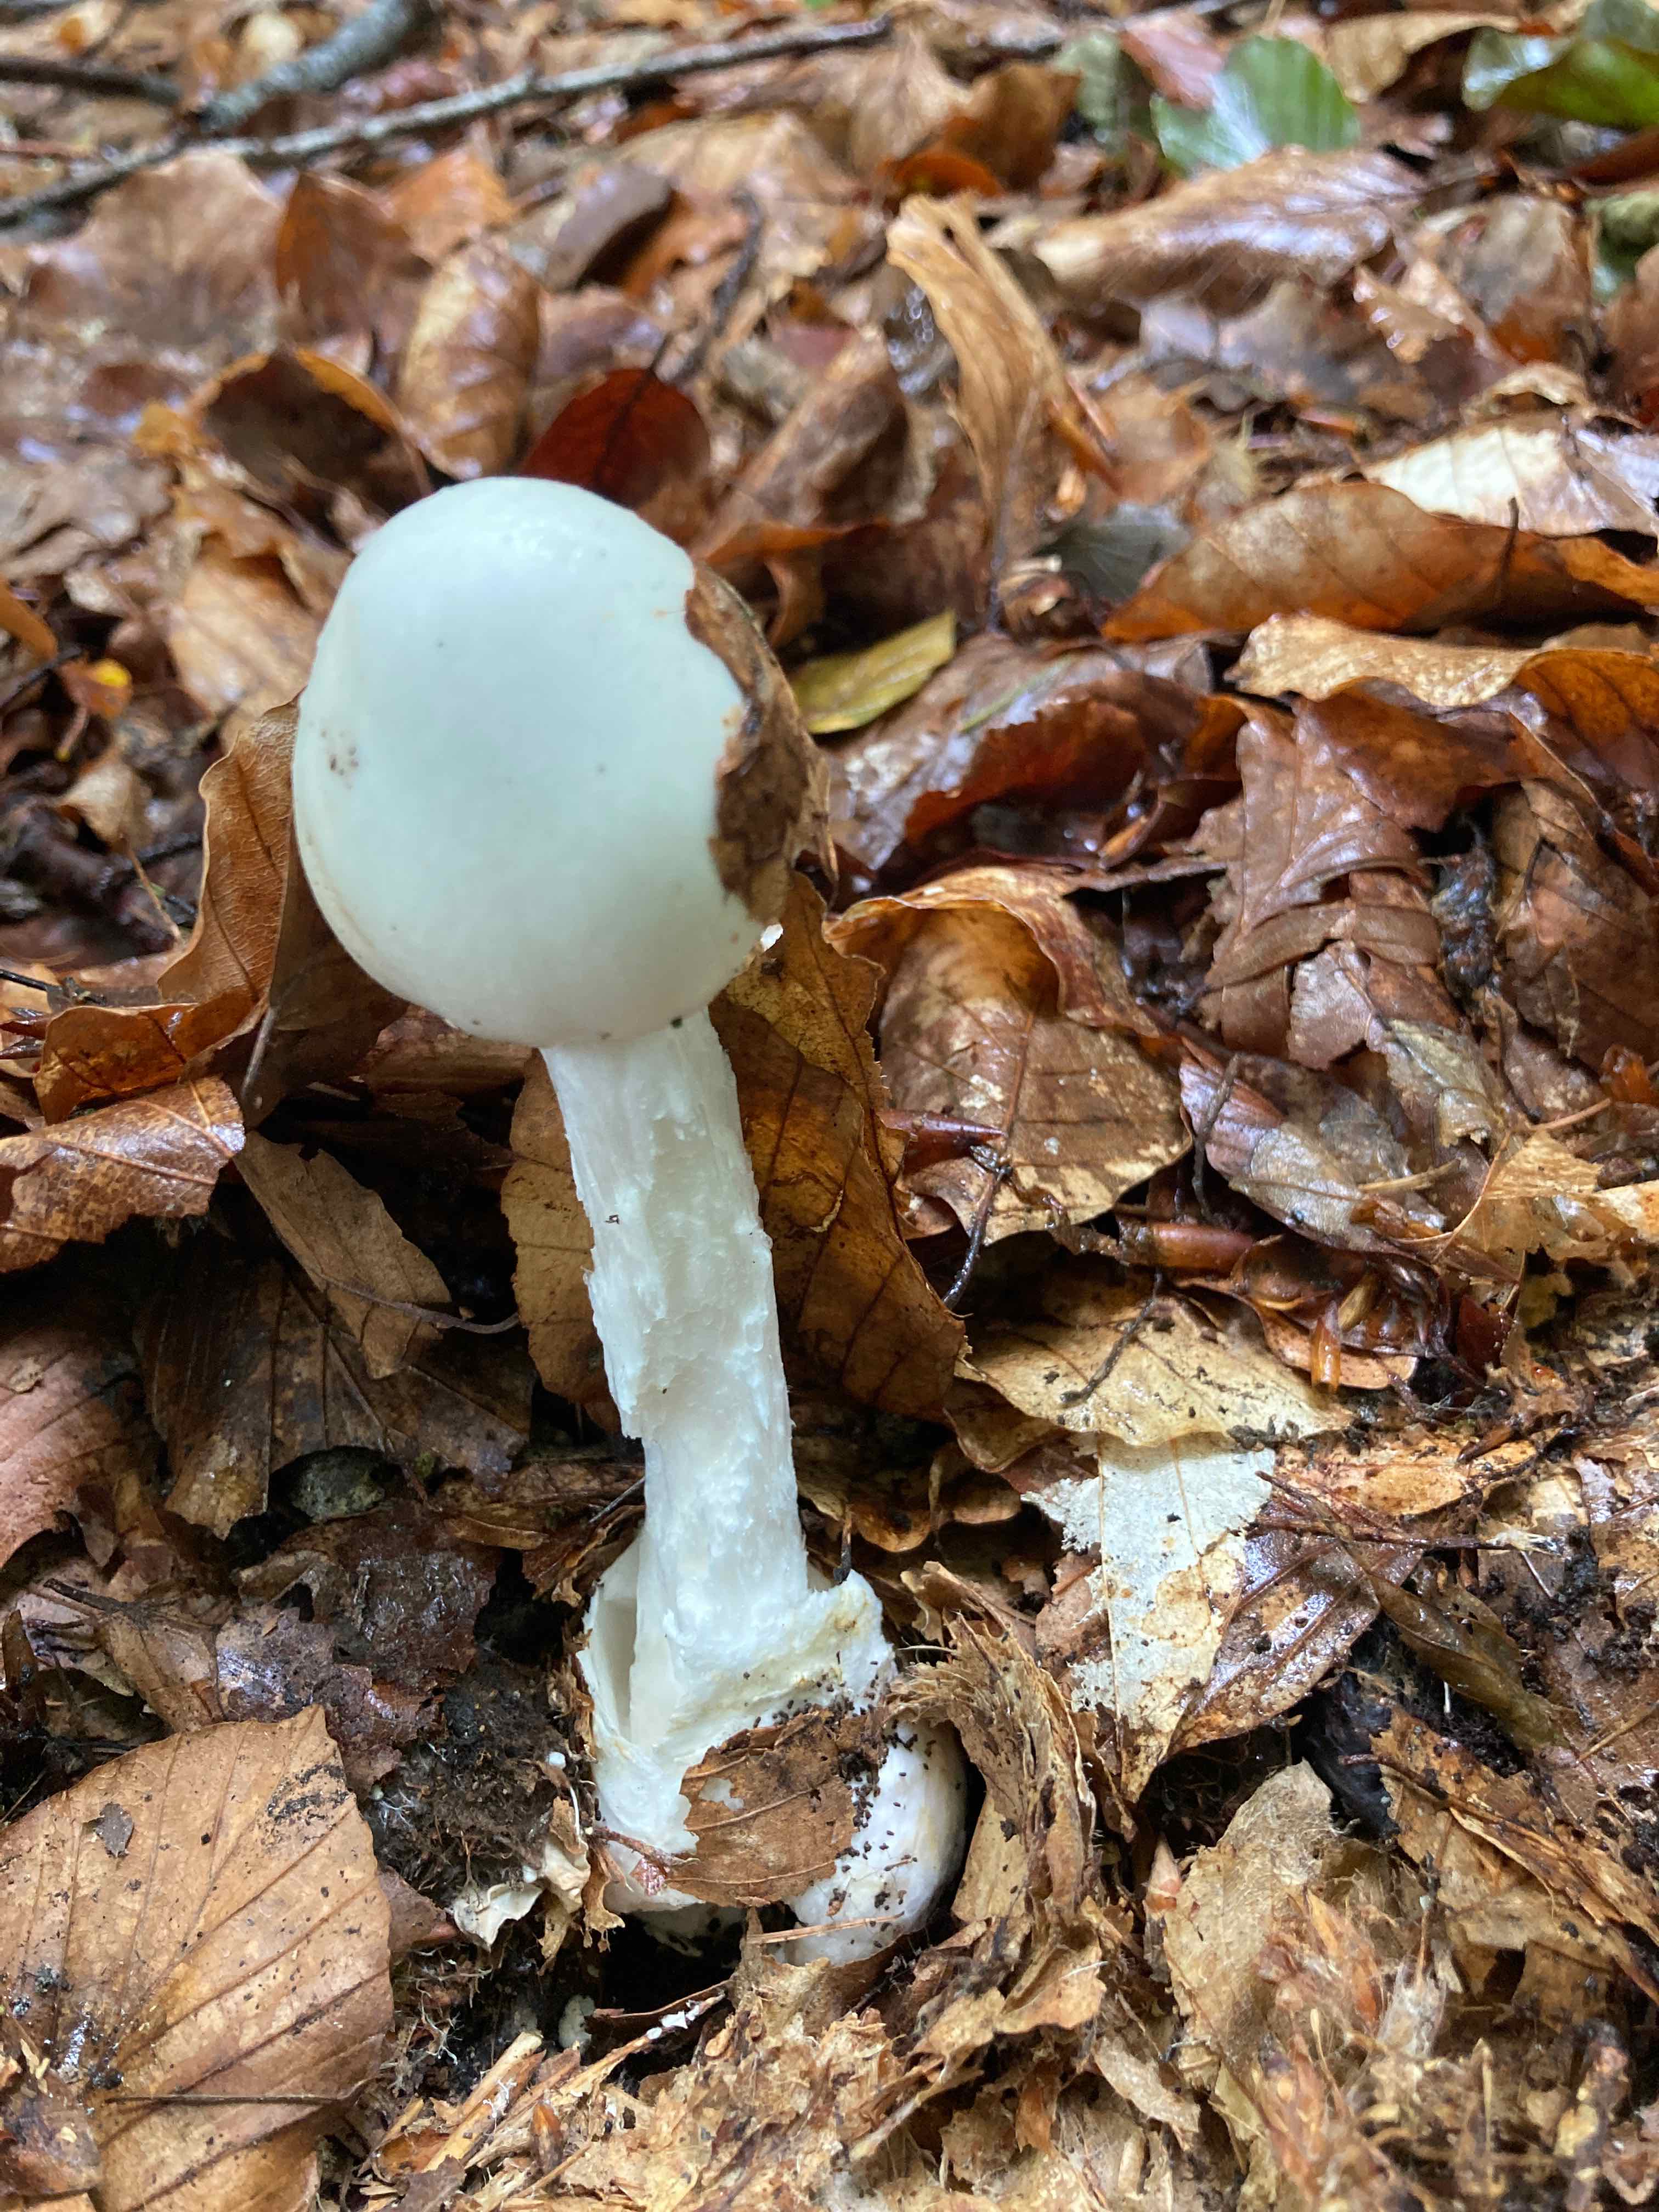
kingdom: Fungi
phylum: Basidiomycota
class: Agaricomycetes
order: Agaricales
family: Amanitaceae
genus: Amanita
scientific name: Amanita virosa
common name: snehvid fluesvamp
